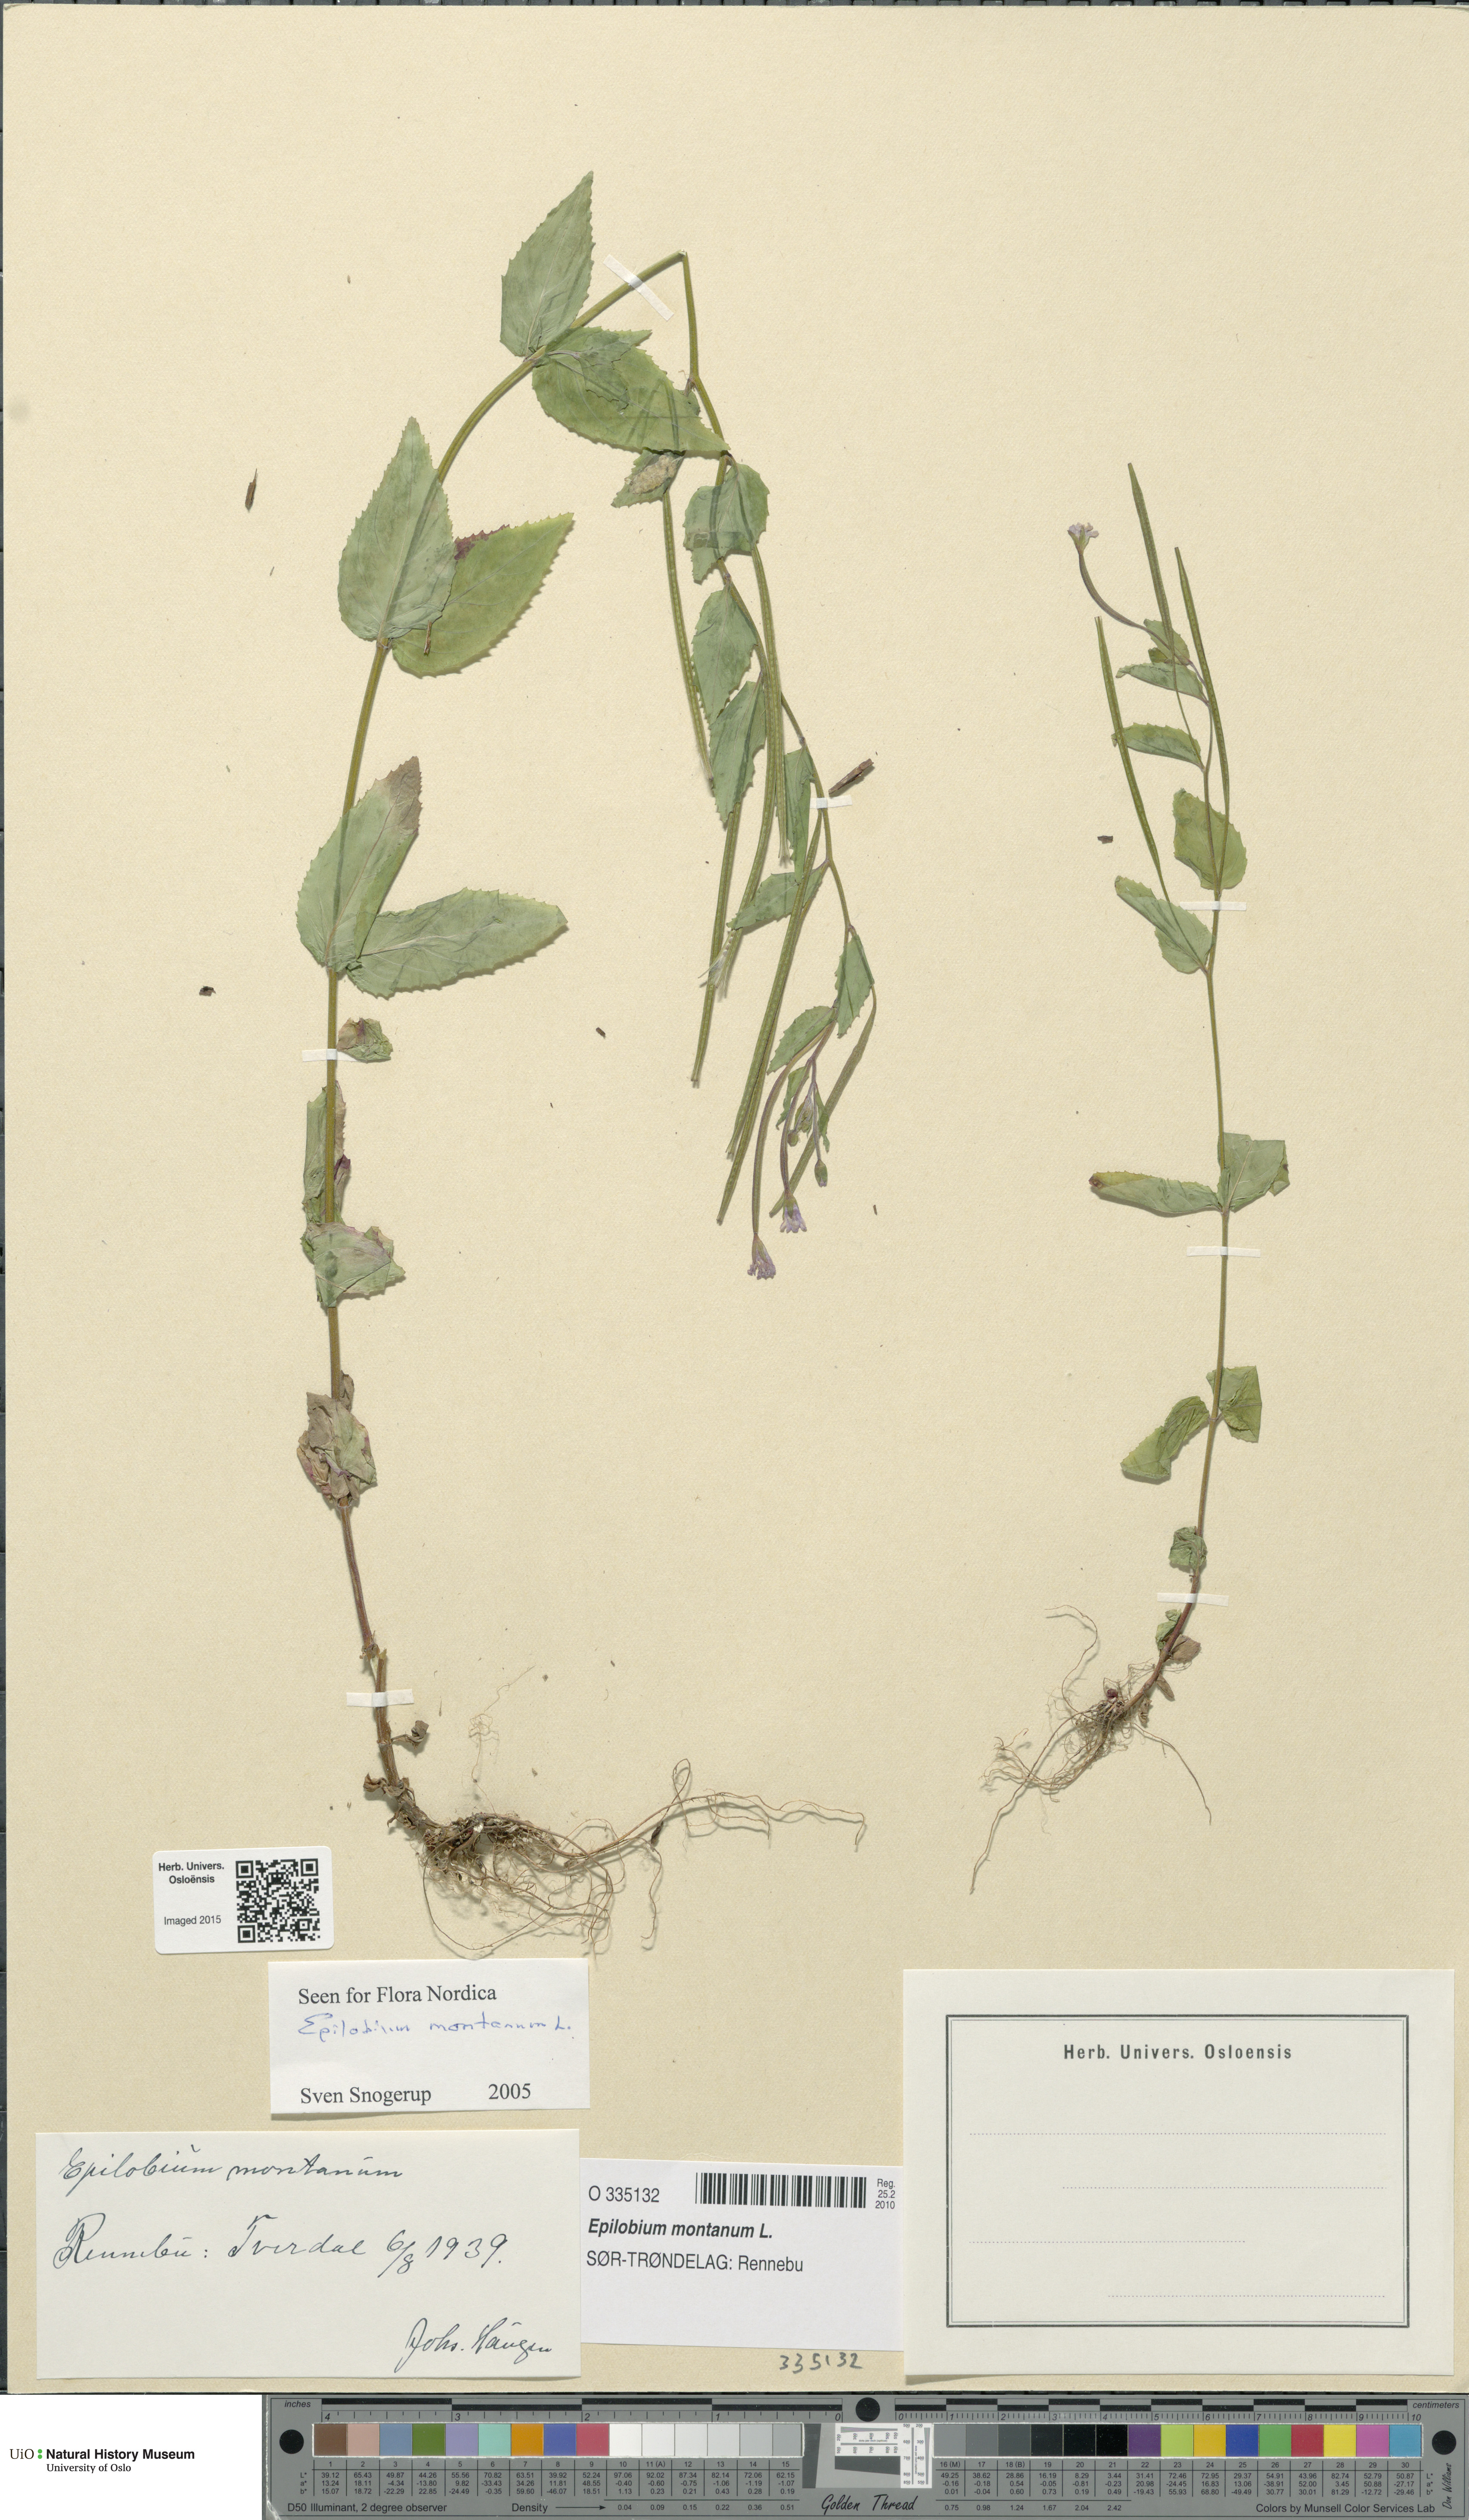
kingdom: Plantae
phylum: Tracheophyta
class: Magnoliopsida
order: Myrtales
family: Onagraceae
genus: Epilobium
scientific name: Epilobium montanum
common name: Broad-leaved willowherb
